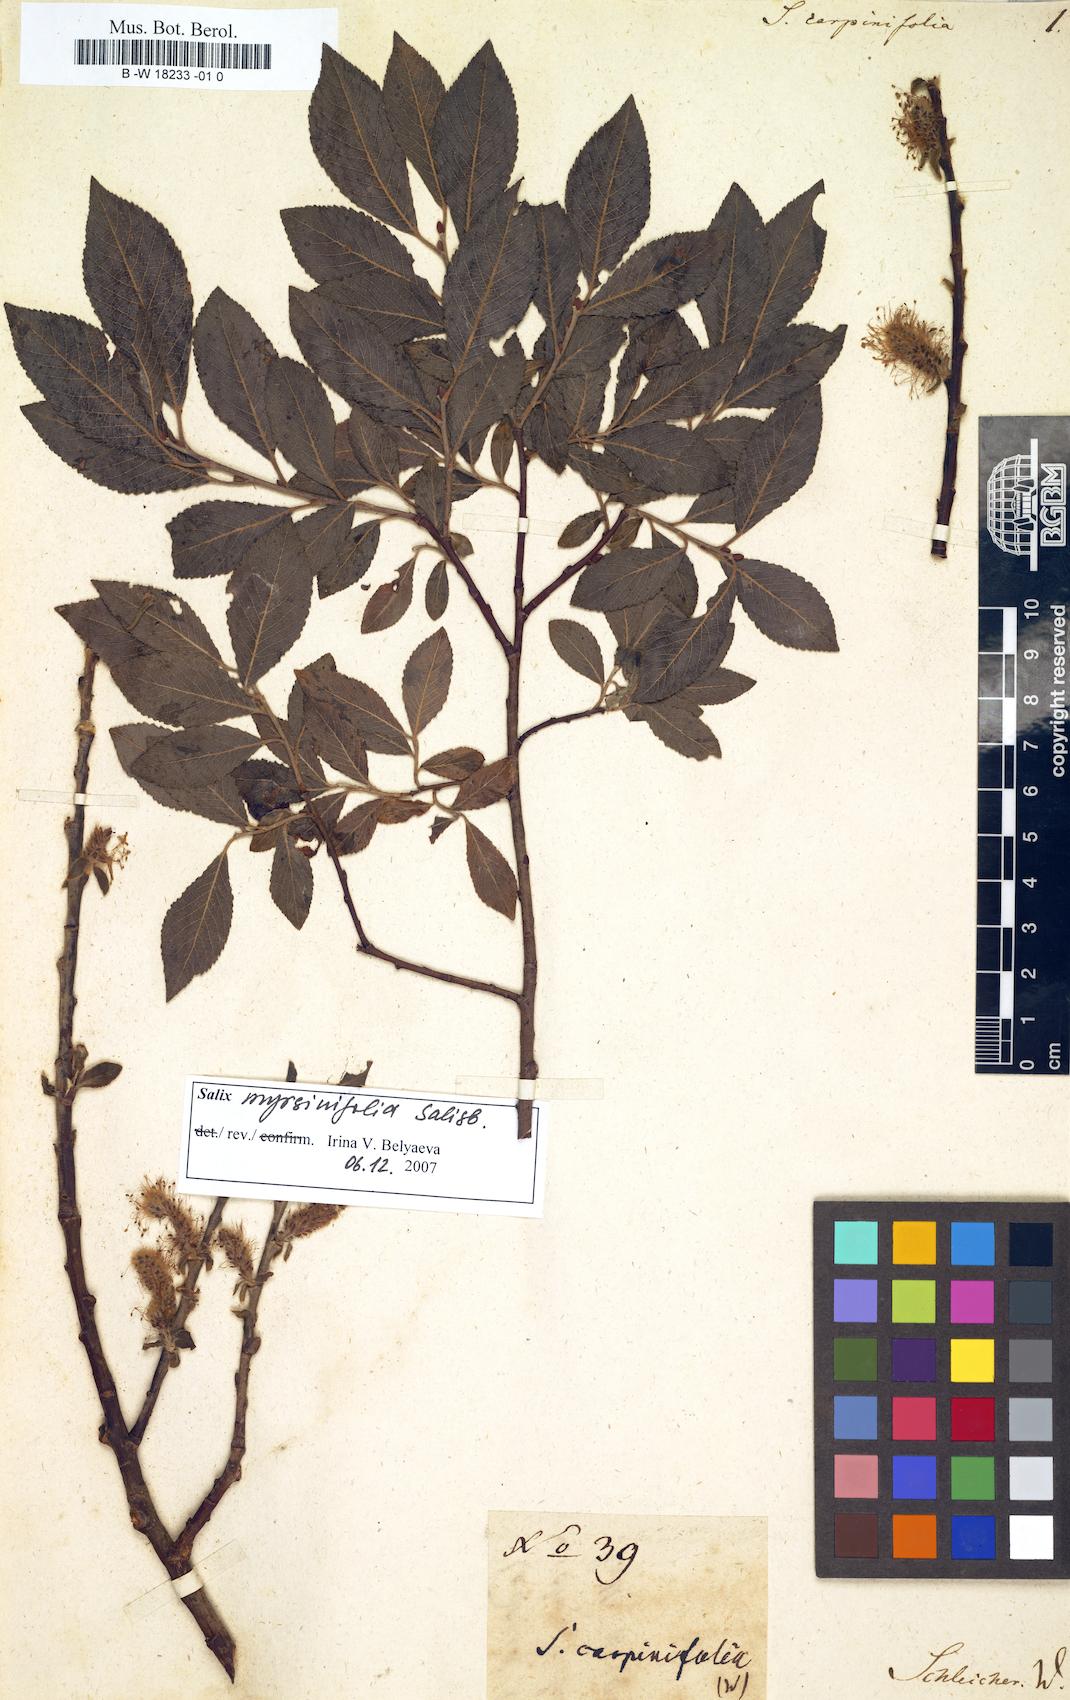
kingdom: Plantae
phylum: Tracheophyta
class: Magnoliopsida
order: Malpighiales
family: Salicaceae
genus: Salix
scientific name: Salix myrsinifolia
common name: Dark-leaved willow
